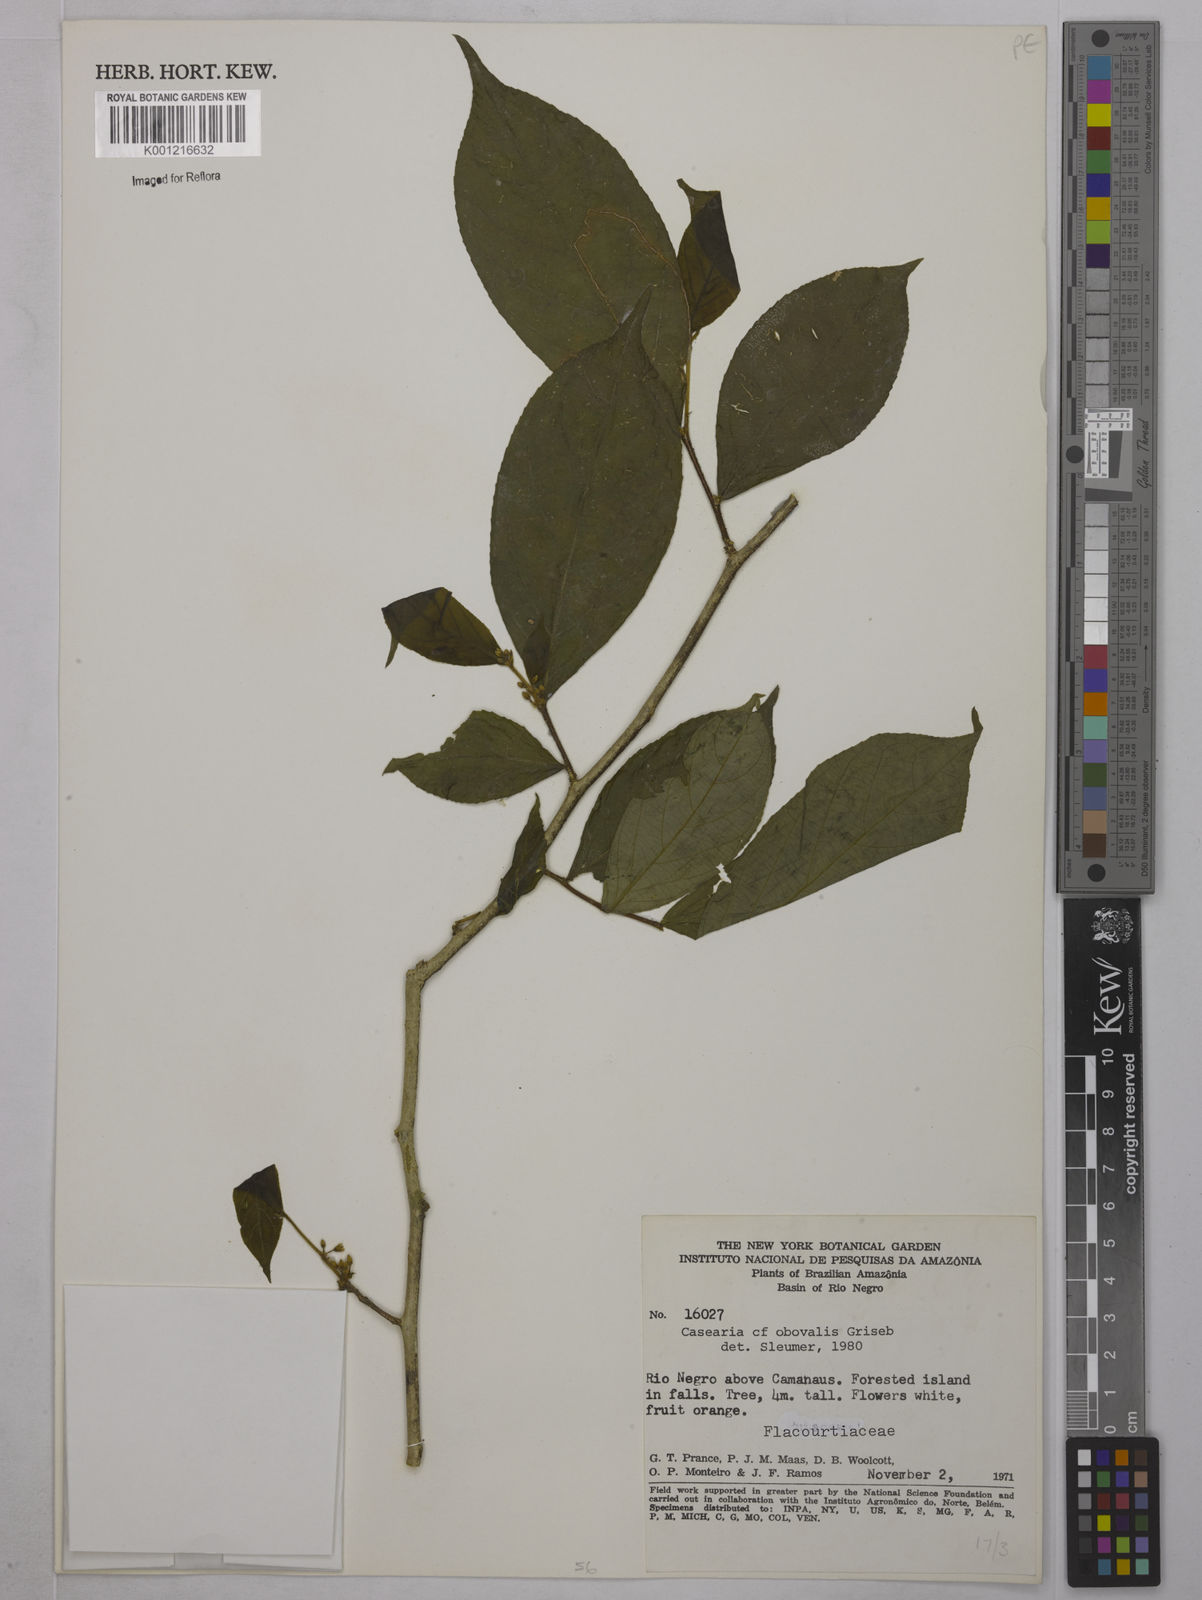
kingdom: Plantae
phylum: Tracheophyta
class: Magnoliopsida
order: Malpighiales
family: Salicaceae
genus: Casearia
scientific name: Casearia obovalis
